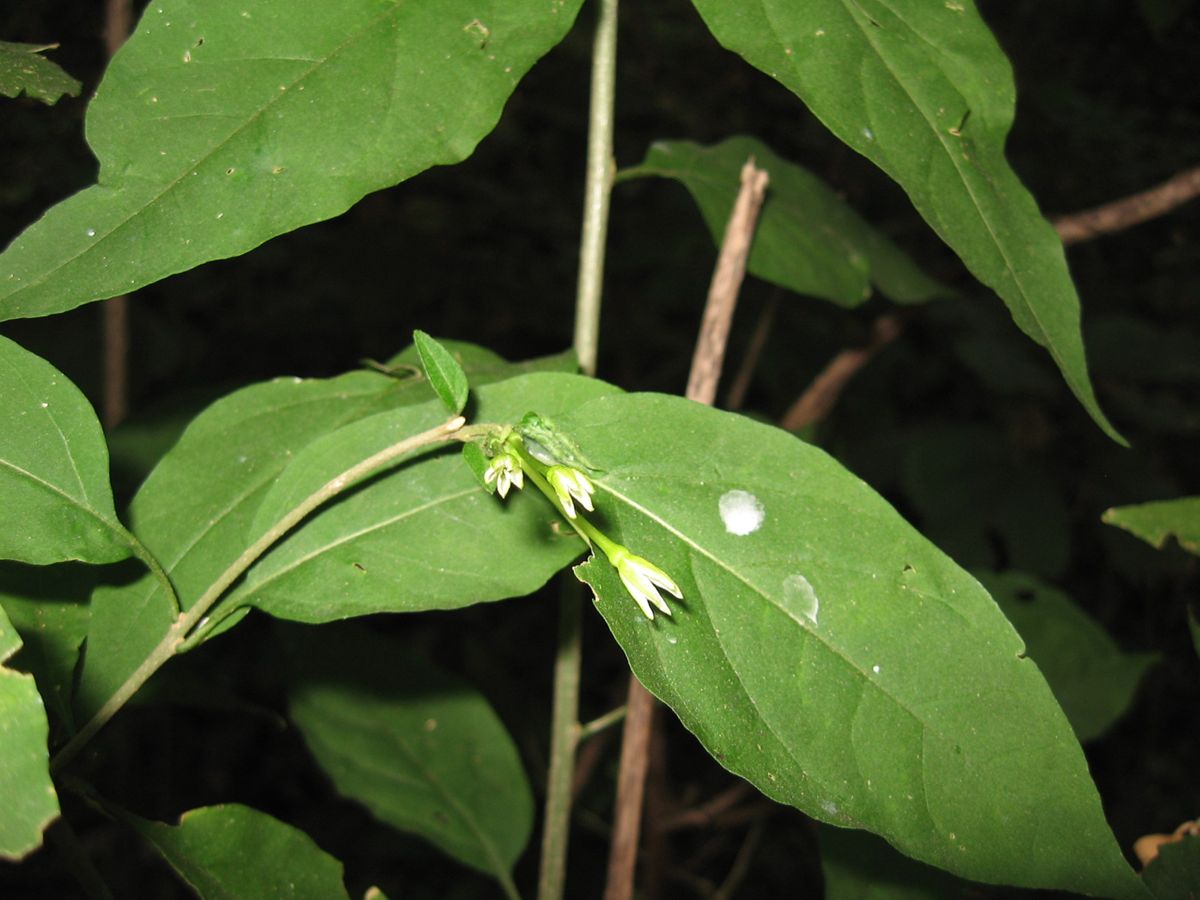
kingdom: Plantae
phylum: Tracheophyta
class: Magnoliopsida
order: Solanales
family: Solanaceae
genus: Cestrum
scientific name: Cestrum alternifolium
